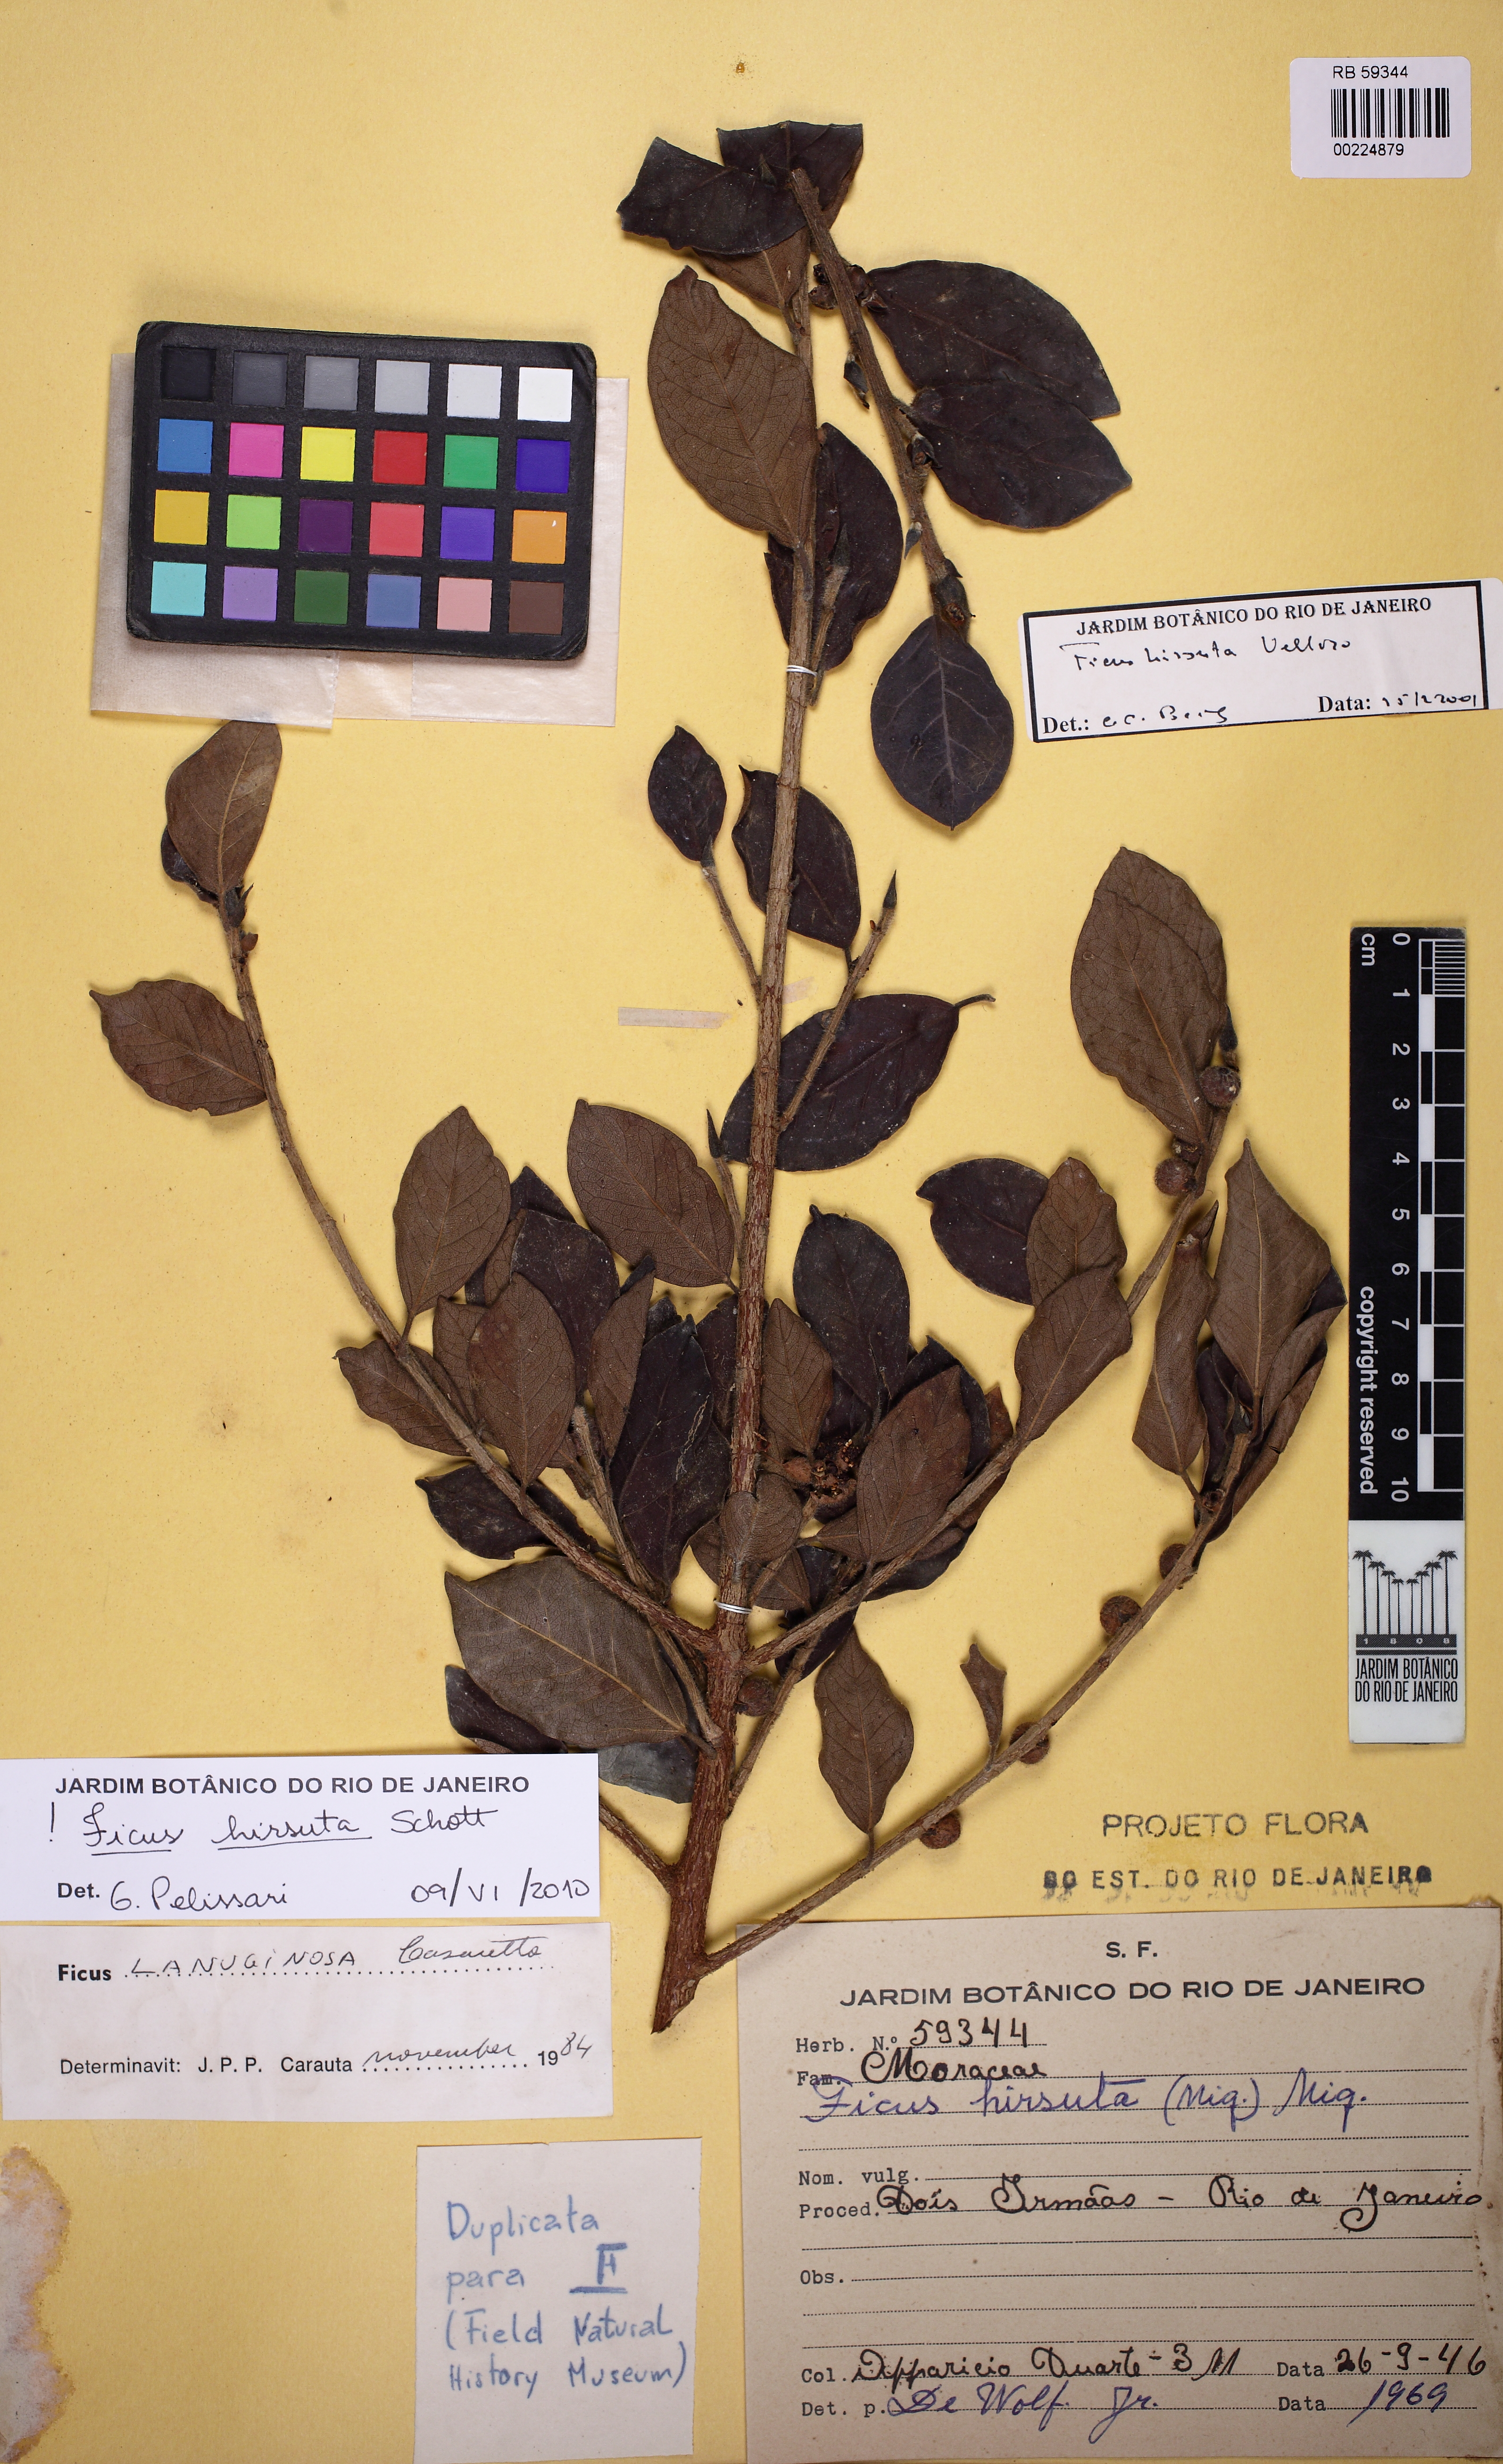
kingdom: Plantae
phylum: Tracheophyta
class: Magnoliopsida
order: Rosales
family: Moraceae
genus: Ficus
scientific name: Ficus hirsuta
